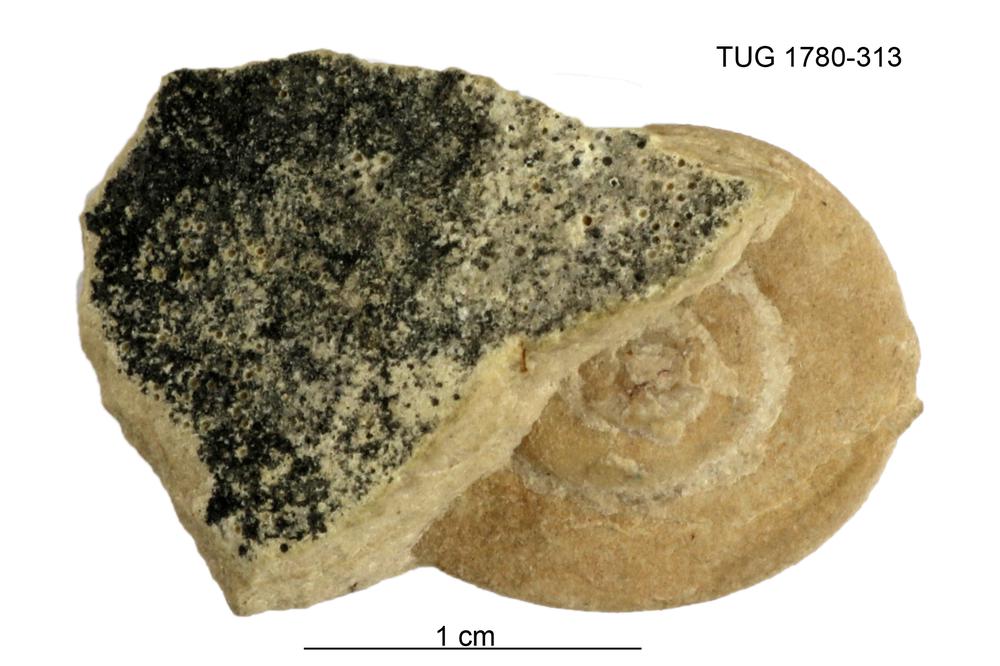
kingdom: Animalia
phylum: Mollusca
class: Gastropoda
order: Pleurotomariida
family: Eotomariidae
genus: Liospira
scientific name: Liospira Raphistoma wesenbergense
